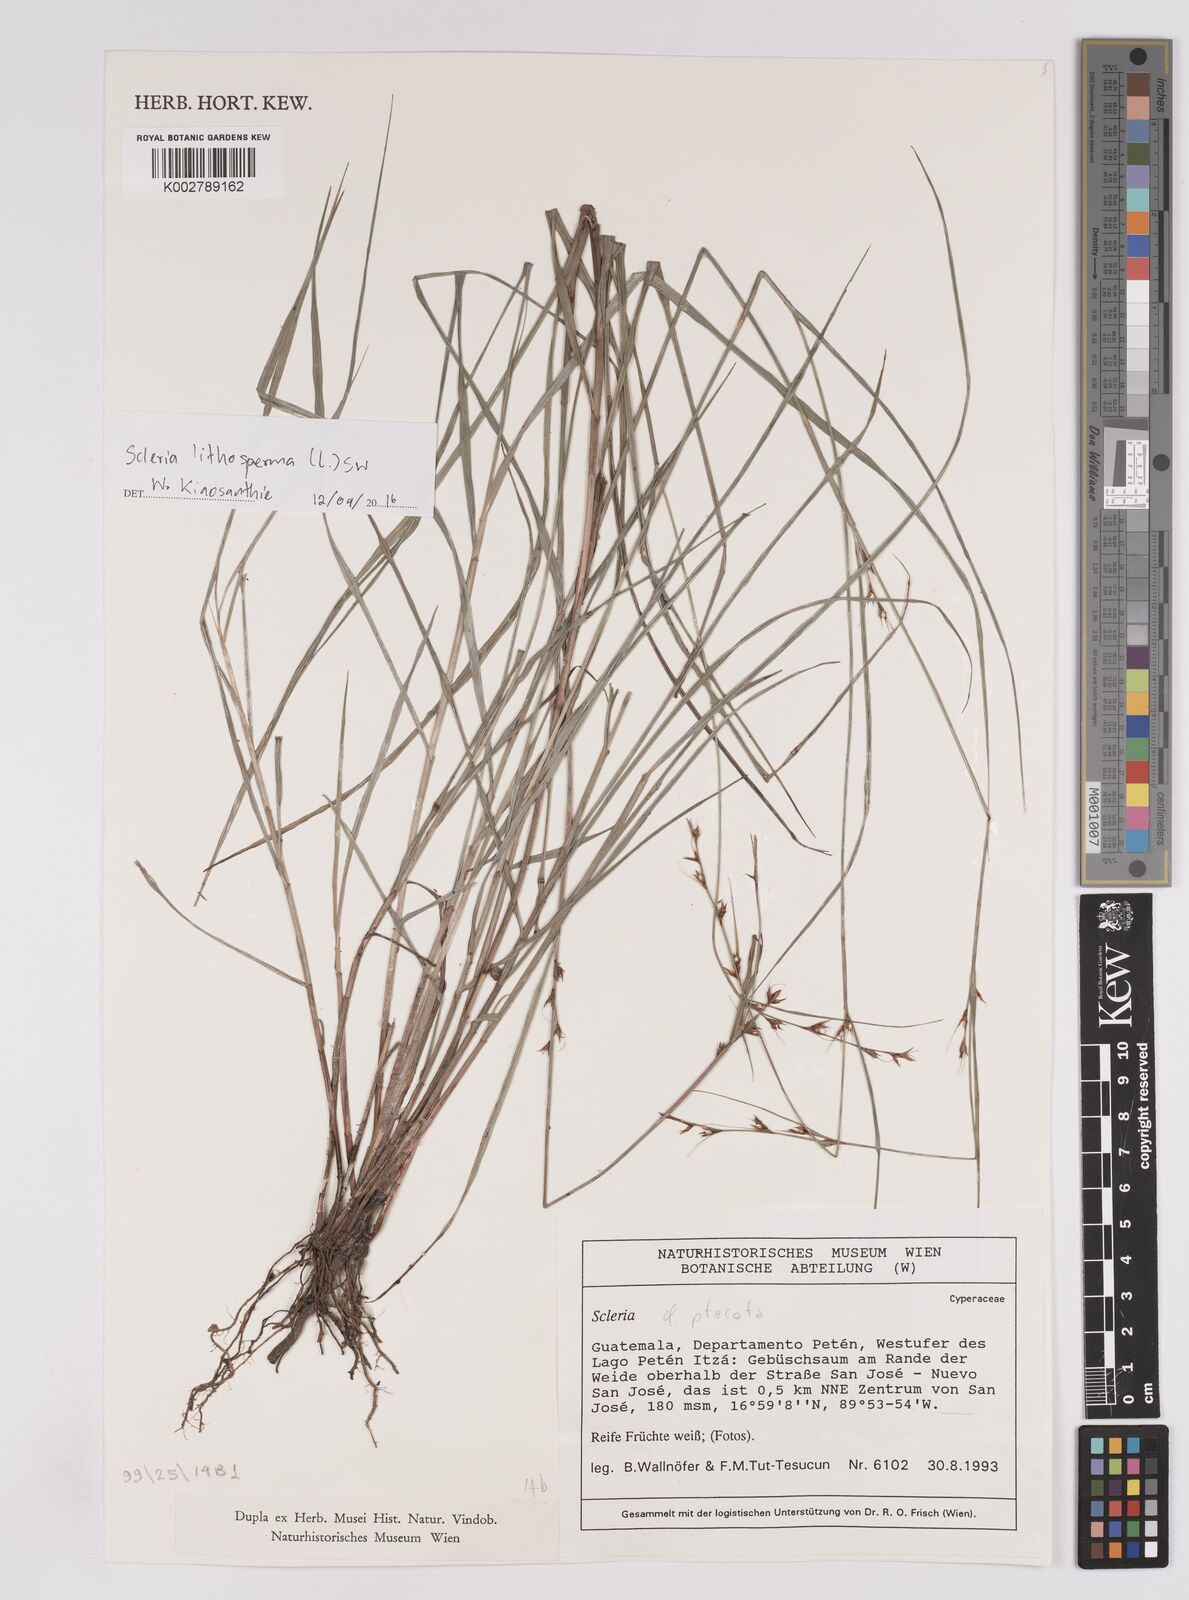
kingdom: Plantae
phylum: Tracheophyta
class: Liliopsida
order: Poales
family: Cyperaceae
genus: Scleria
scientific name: Scleria lithosperma
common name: Florida keys nut-rush
